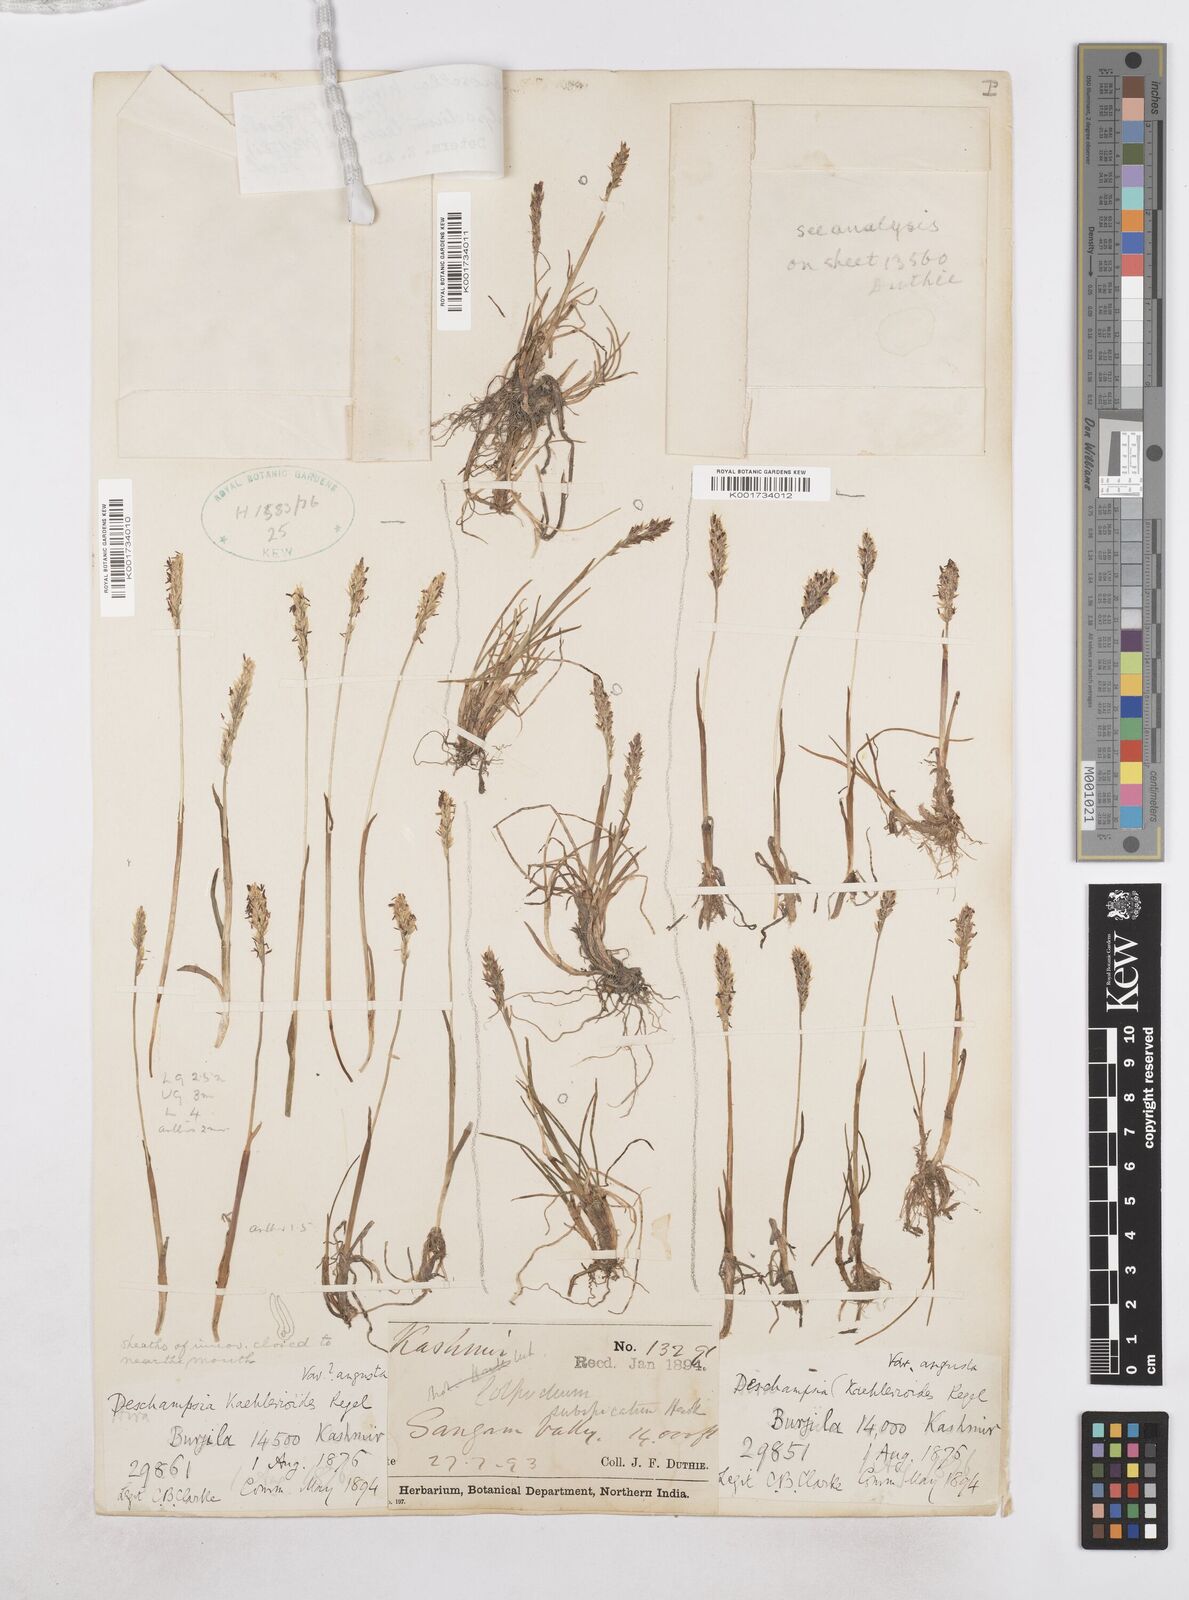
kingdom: Plantae
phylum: Tracheophyta
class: Liliopsida
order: Poales
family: Poaceae
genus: Paracolpodium
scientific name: Paracolpodium altaicum
